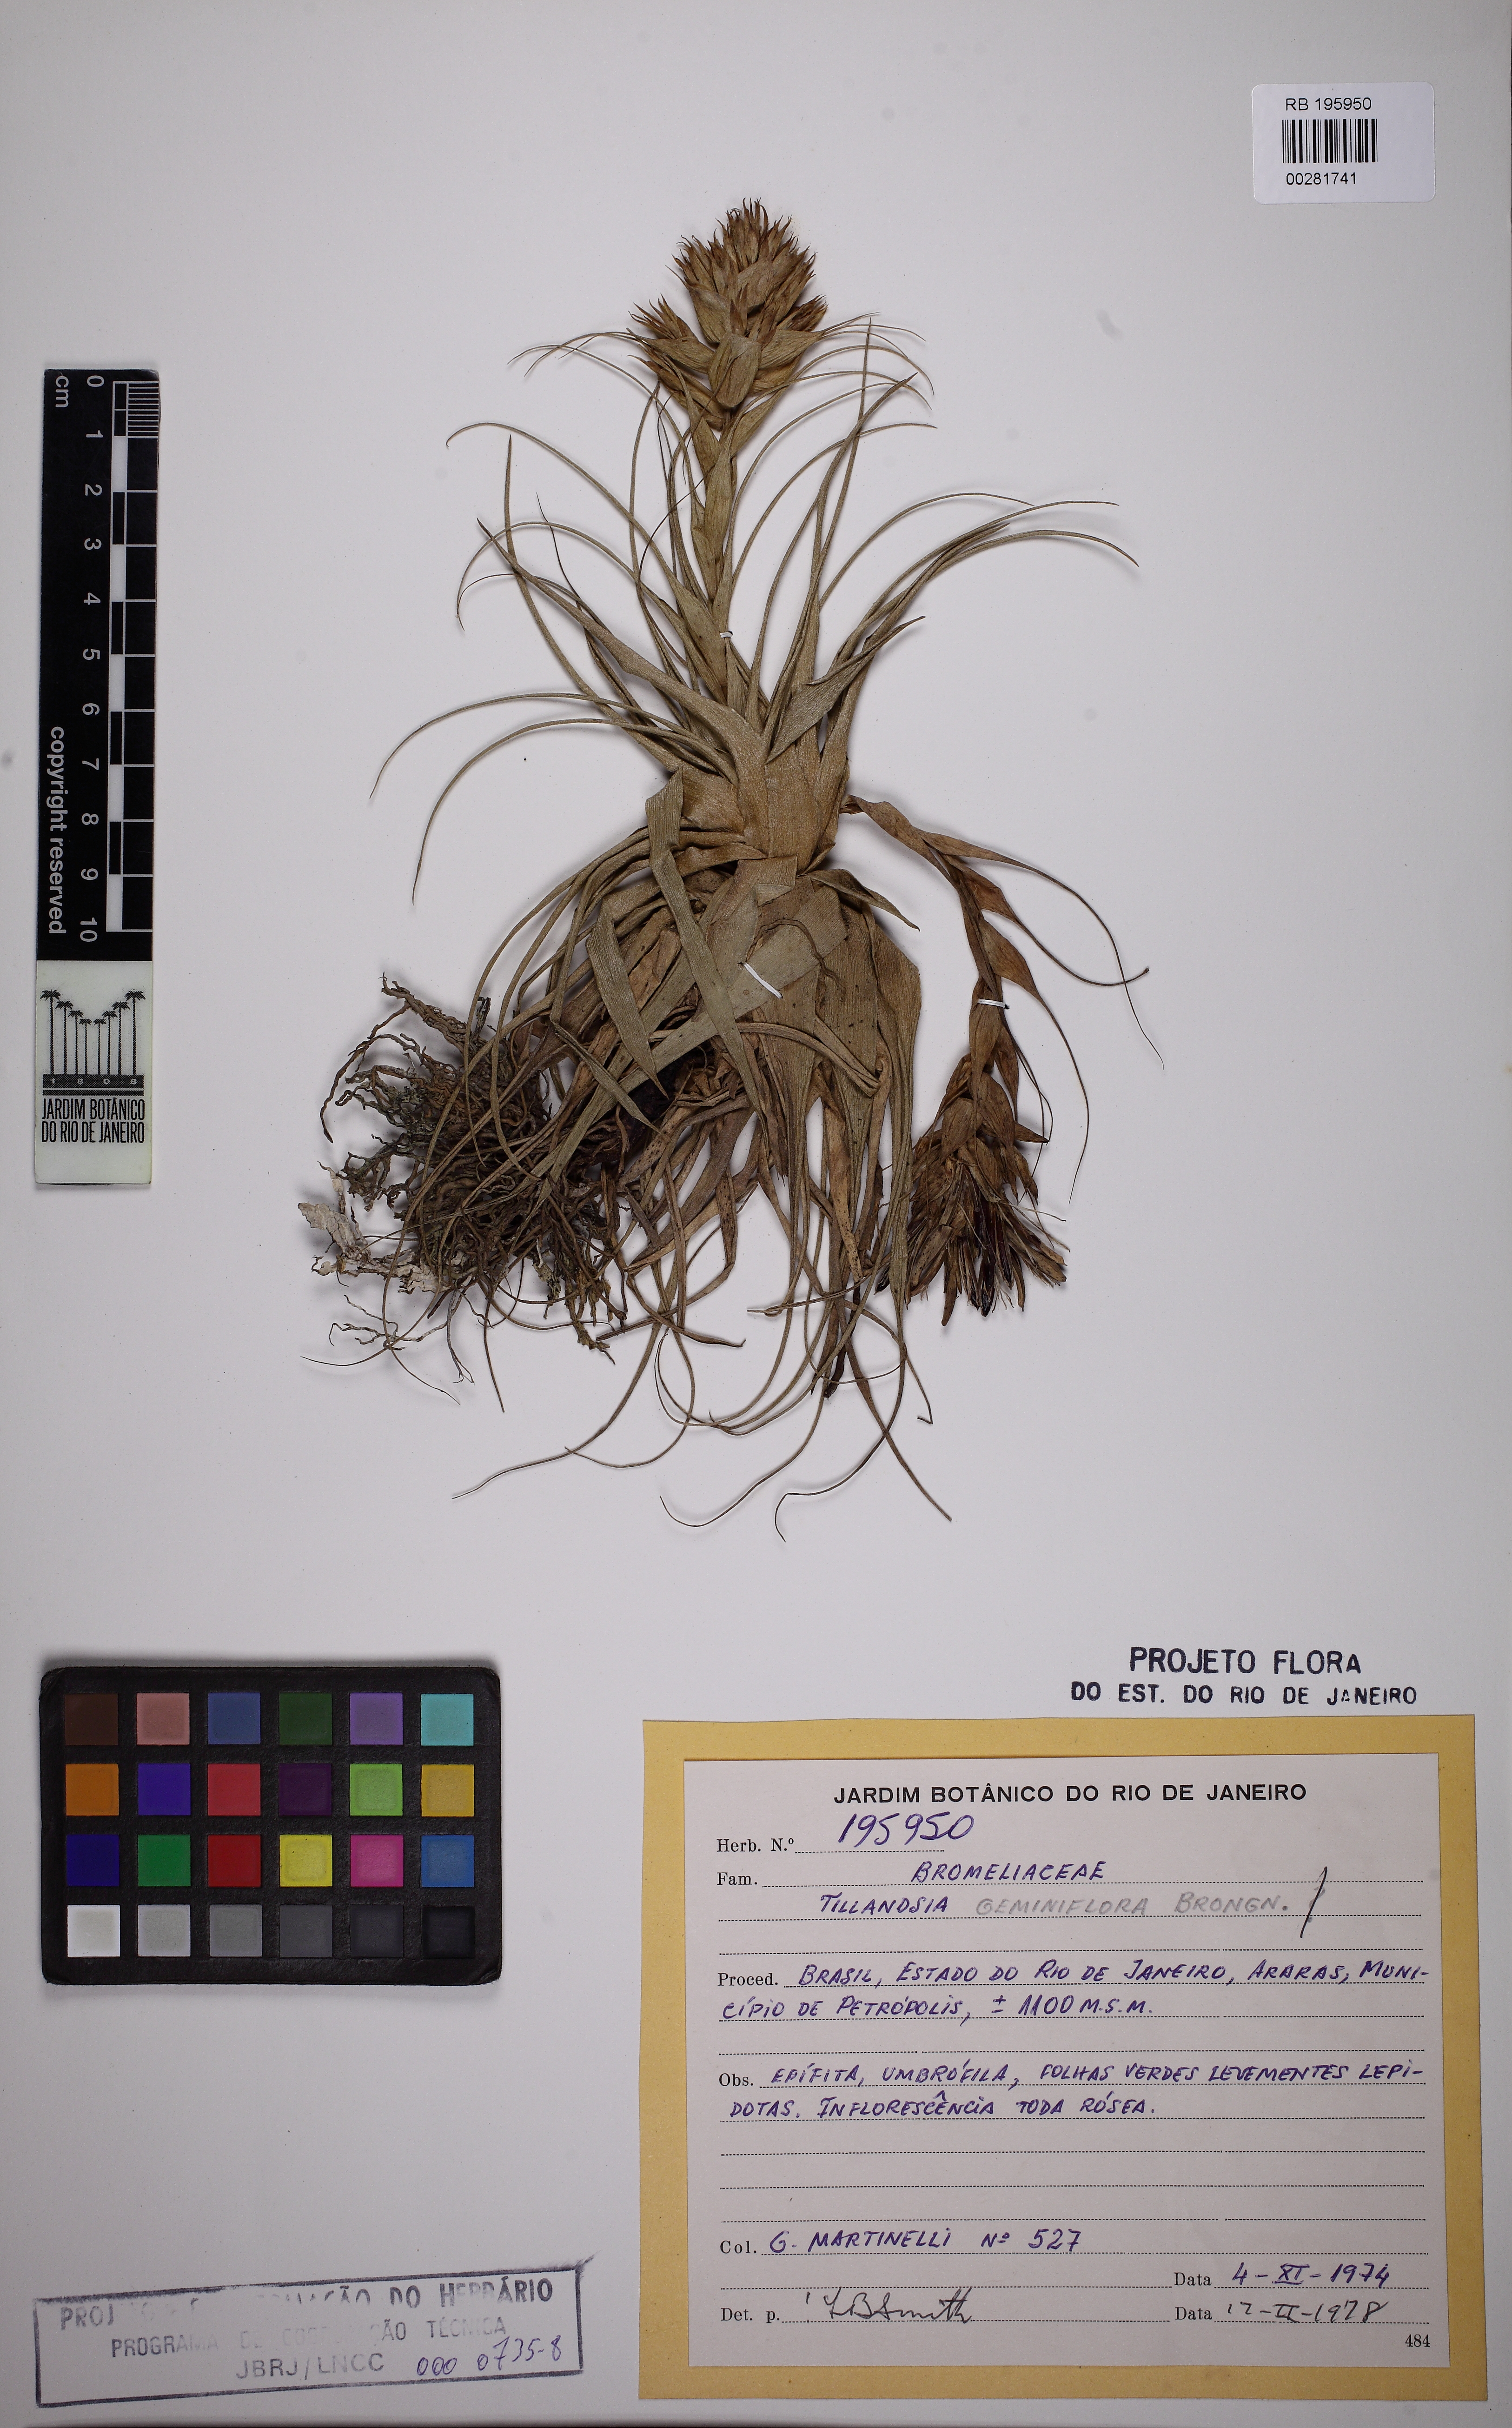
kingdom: Plantae
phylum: Tracheophyta
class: Liliopsida
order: Poales
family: Bromeliaceae
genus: Tillandsia
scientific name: Tillandsia geminiflora
